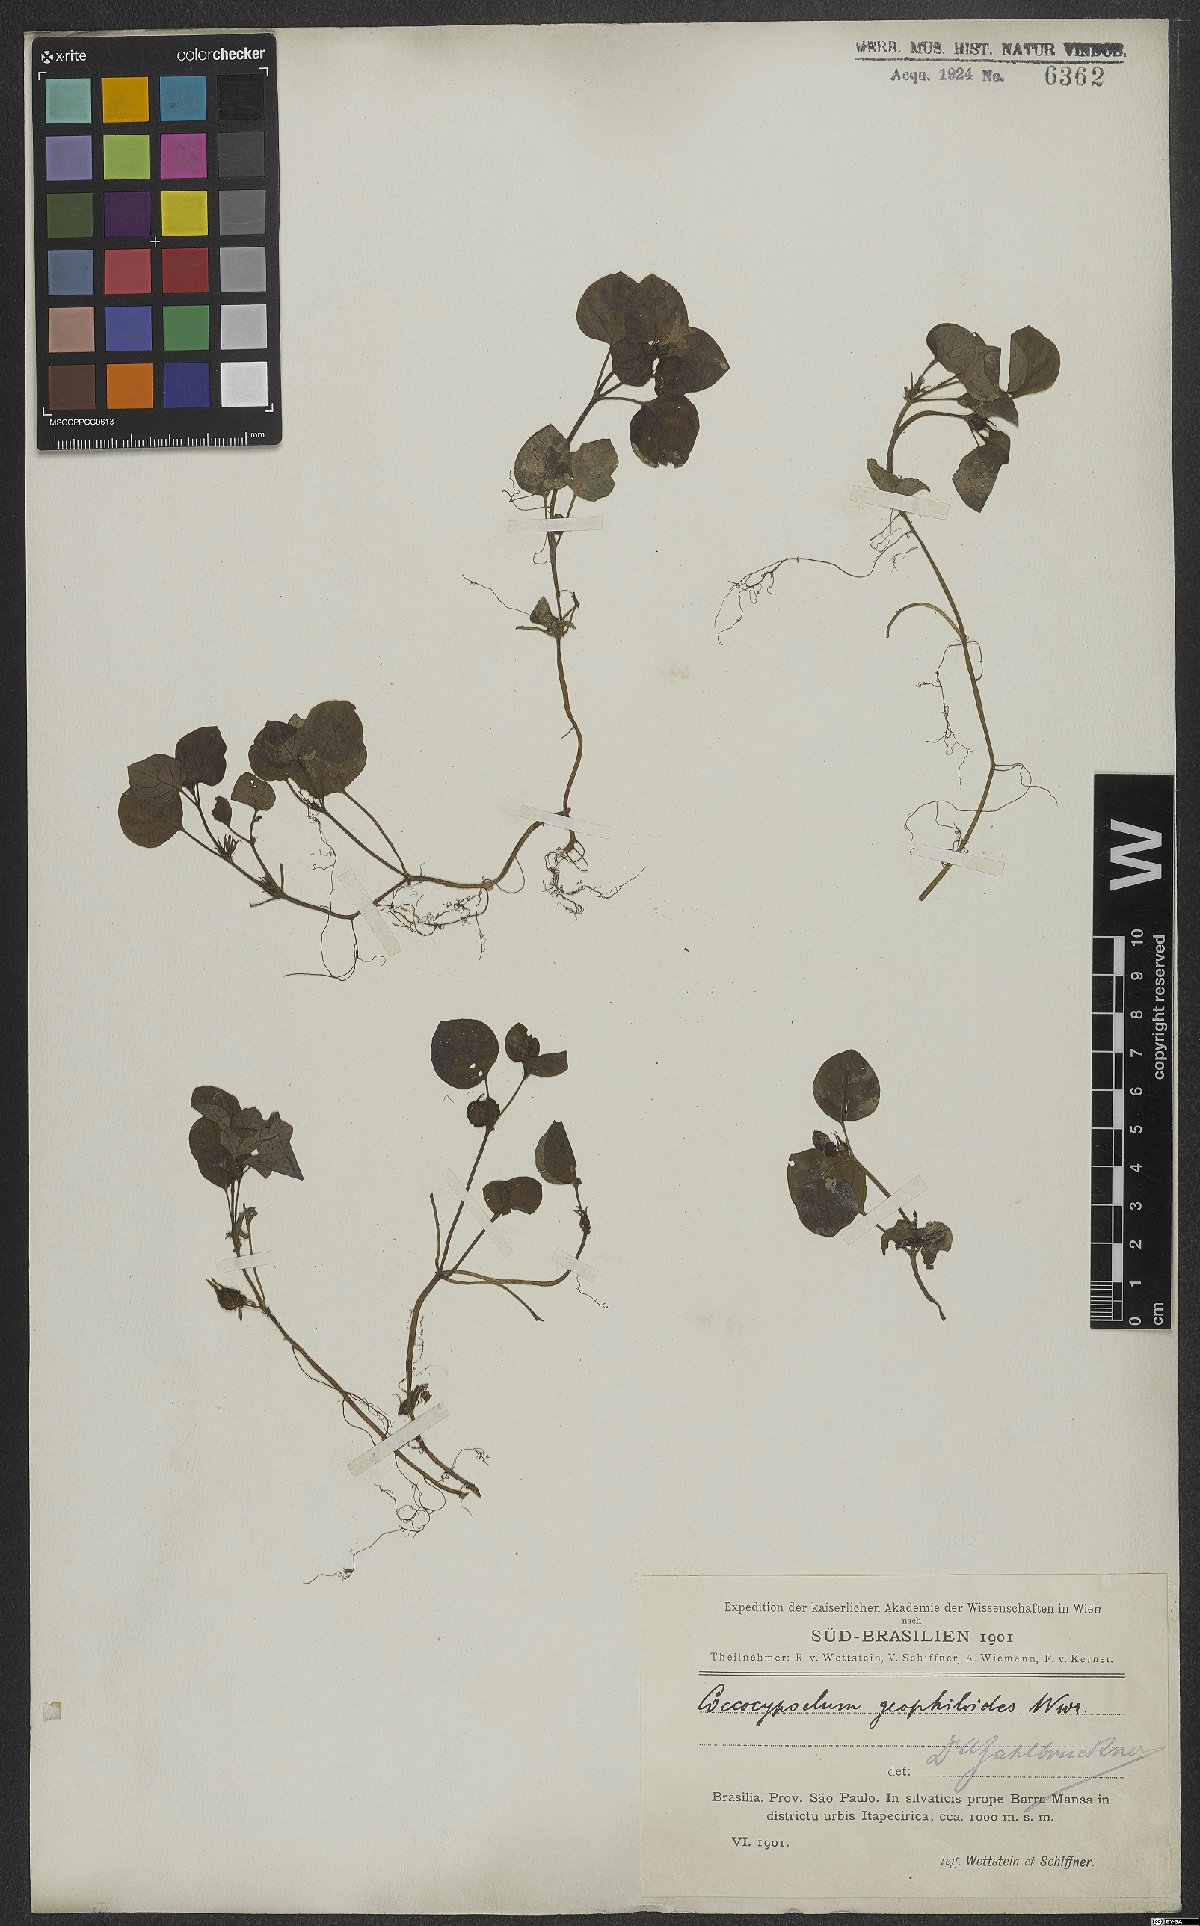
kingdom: Plantae
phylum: Tracheophyta
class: Magnoliopsida
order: Gentianales
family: Rubiaceae
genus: Coccocypselum
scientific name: Coccocypselum geophiloides
